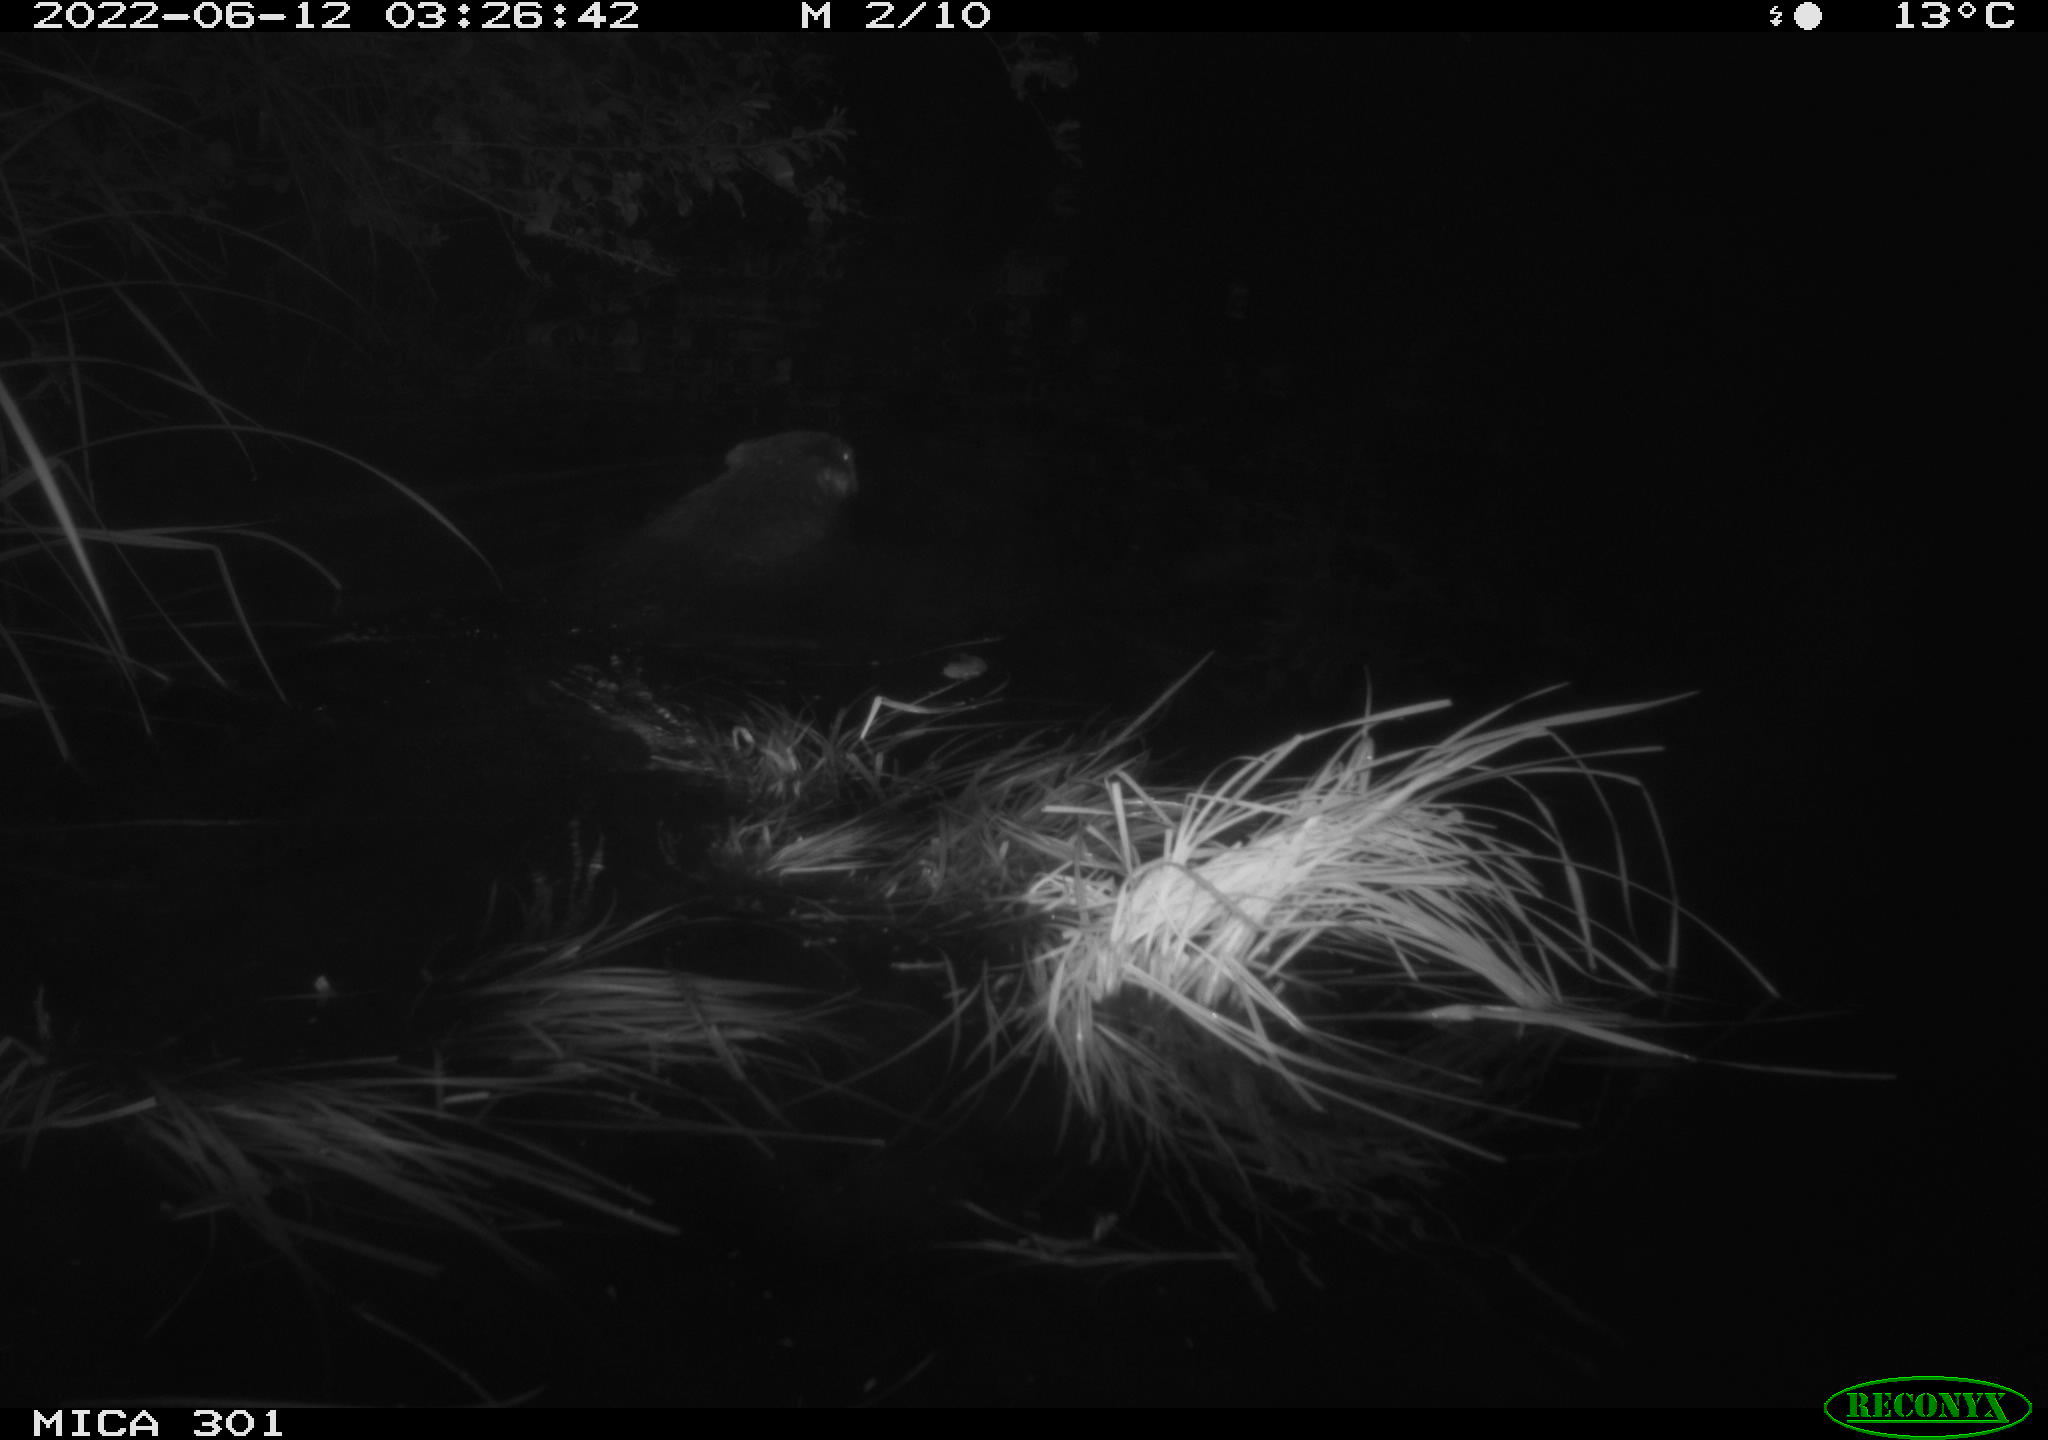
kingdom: Animalia
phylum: Chordata
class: Mammalia
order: Rodentia
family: Castoridae
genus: Castor
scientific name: Castor fiber
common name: Eurasian beaver
